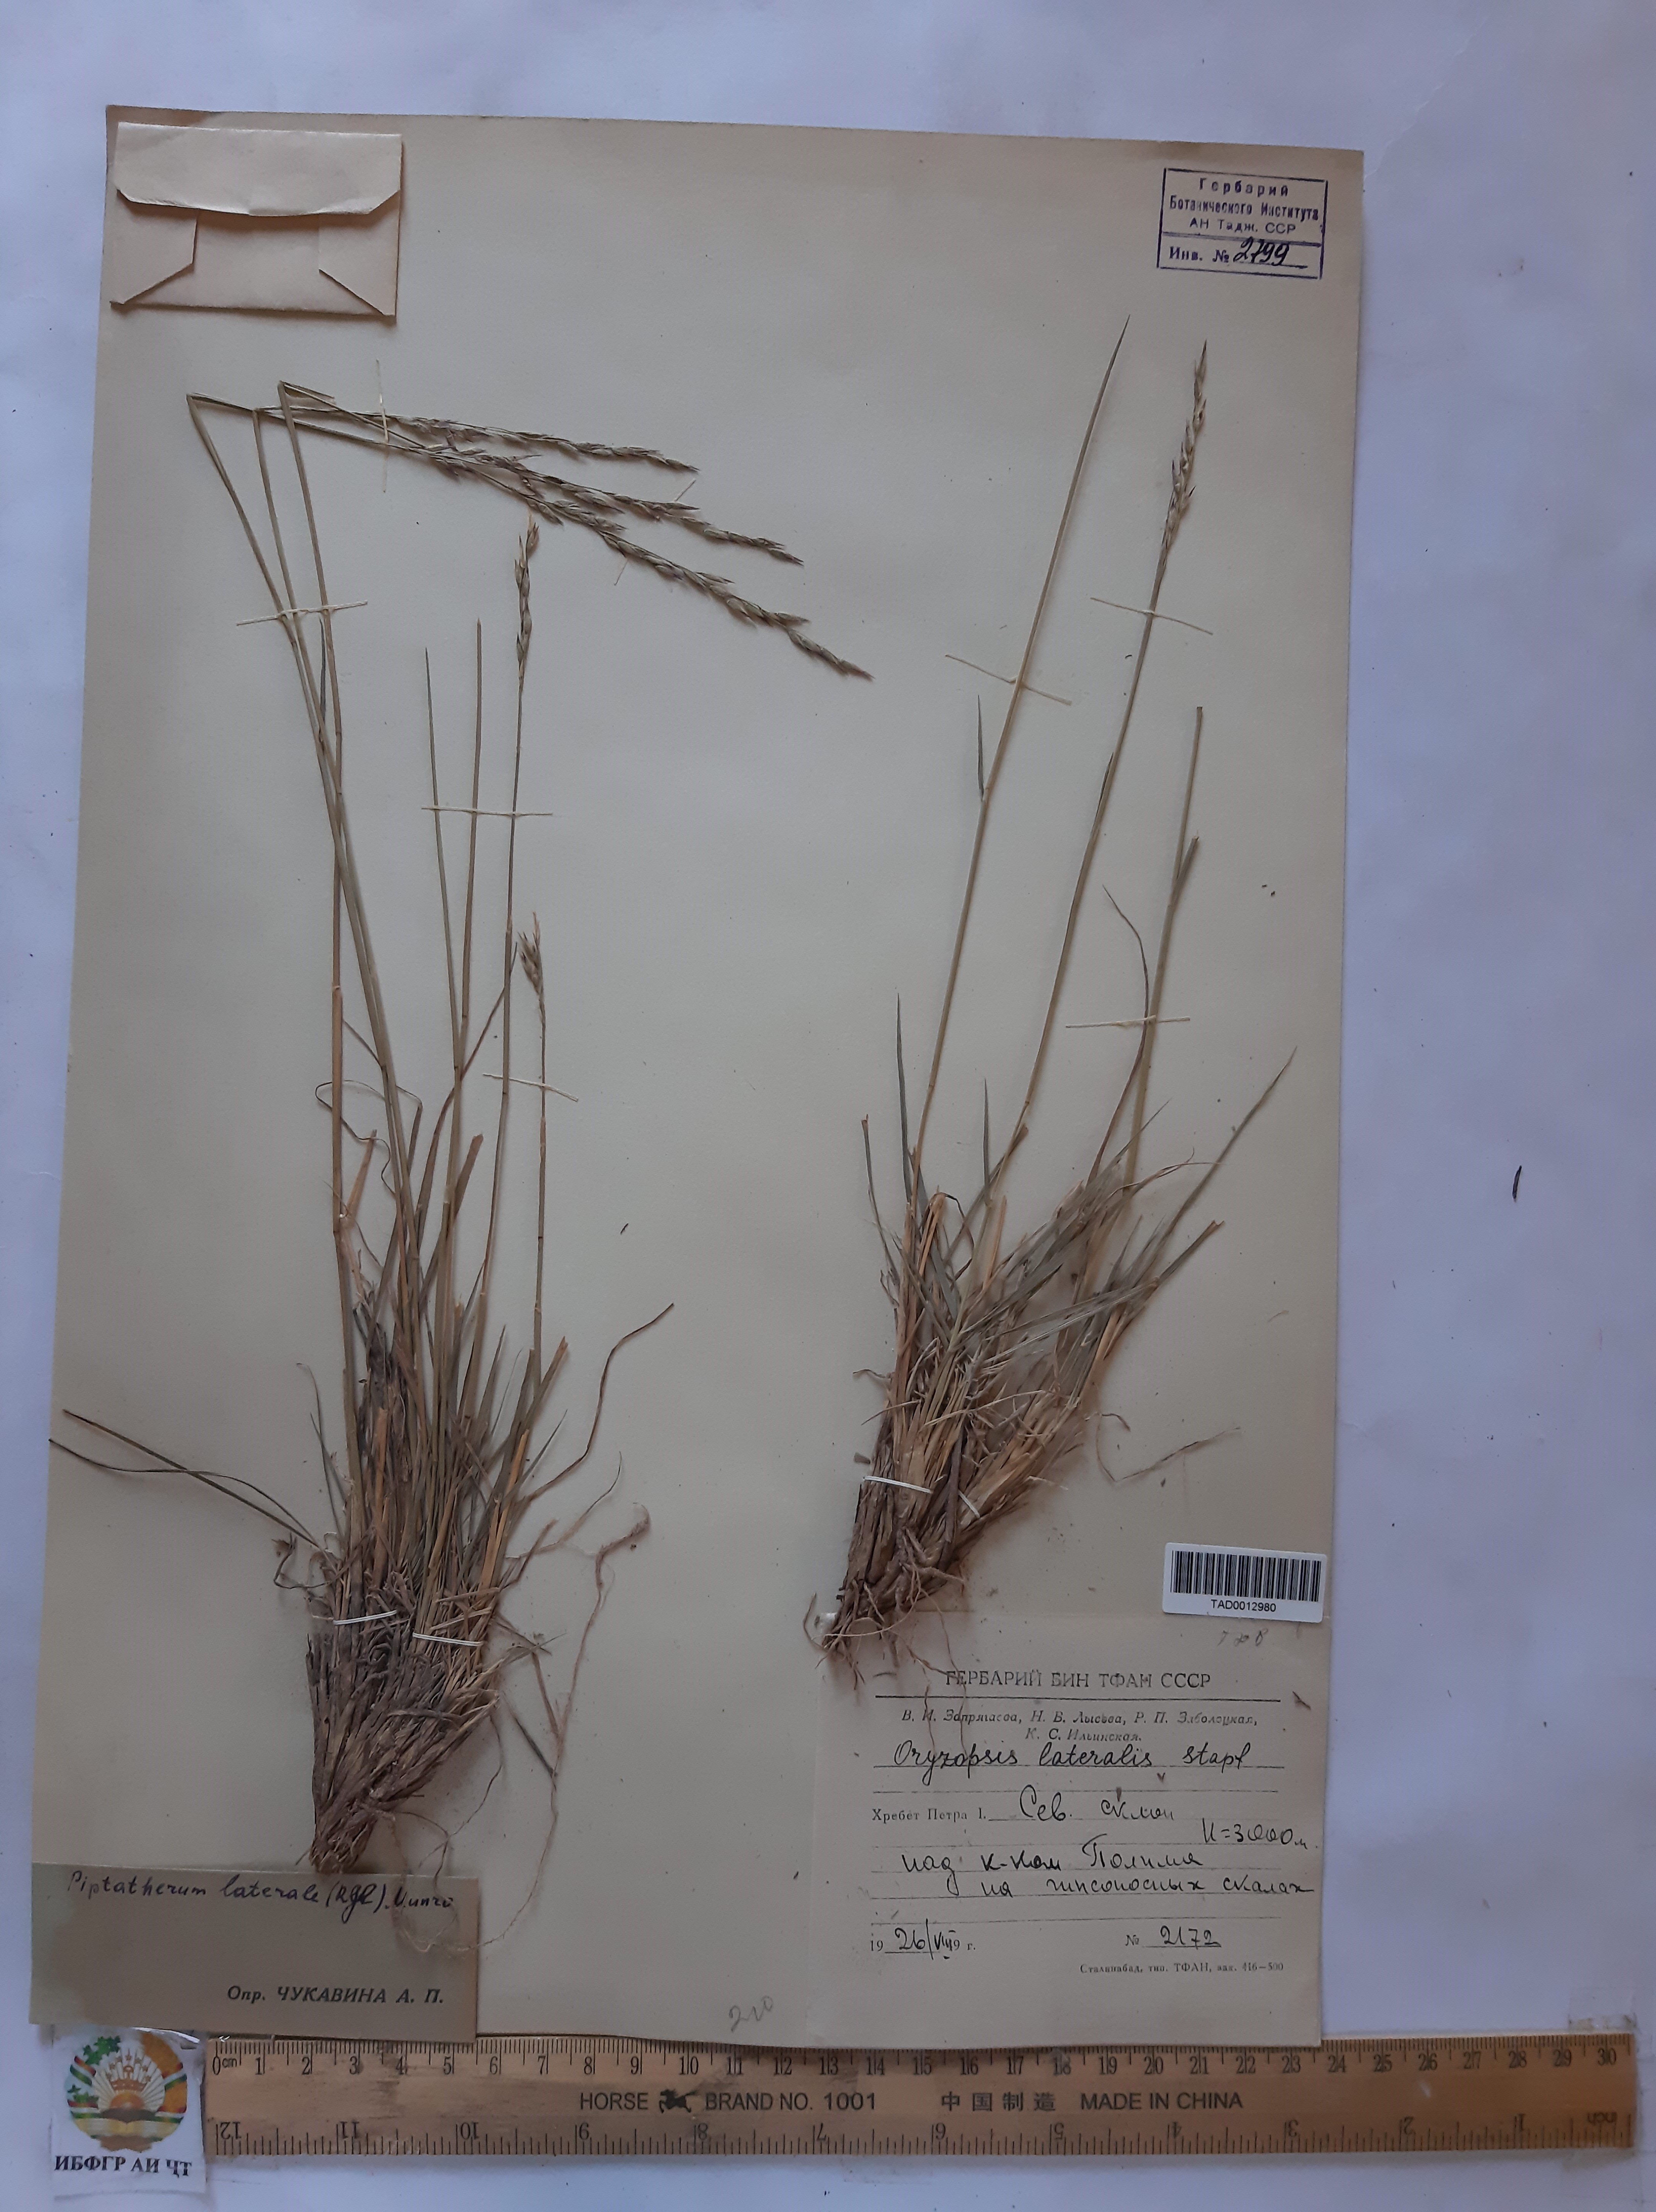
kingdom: Plantae
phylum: Tracheophyta
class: Liliopsida
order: Poales
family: Poaceae
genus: Piptatherum
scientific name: Piptatherum laterale
